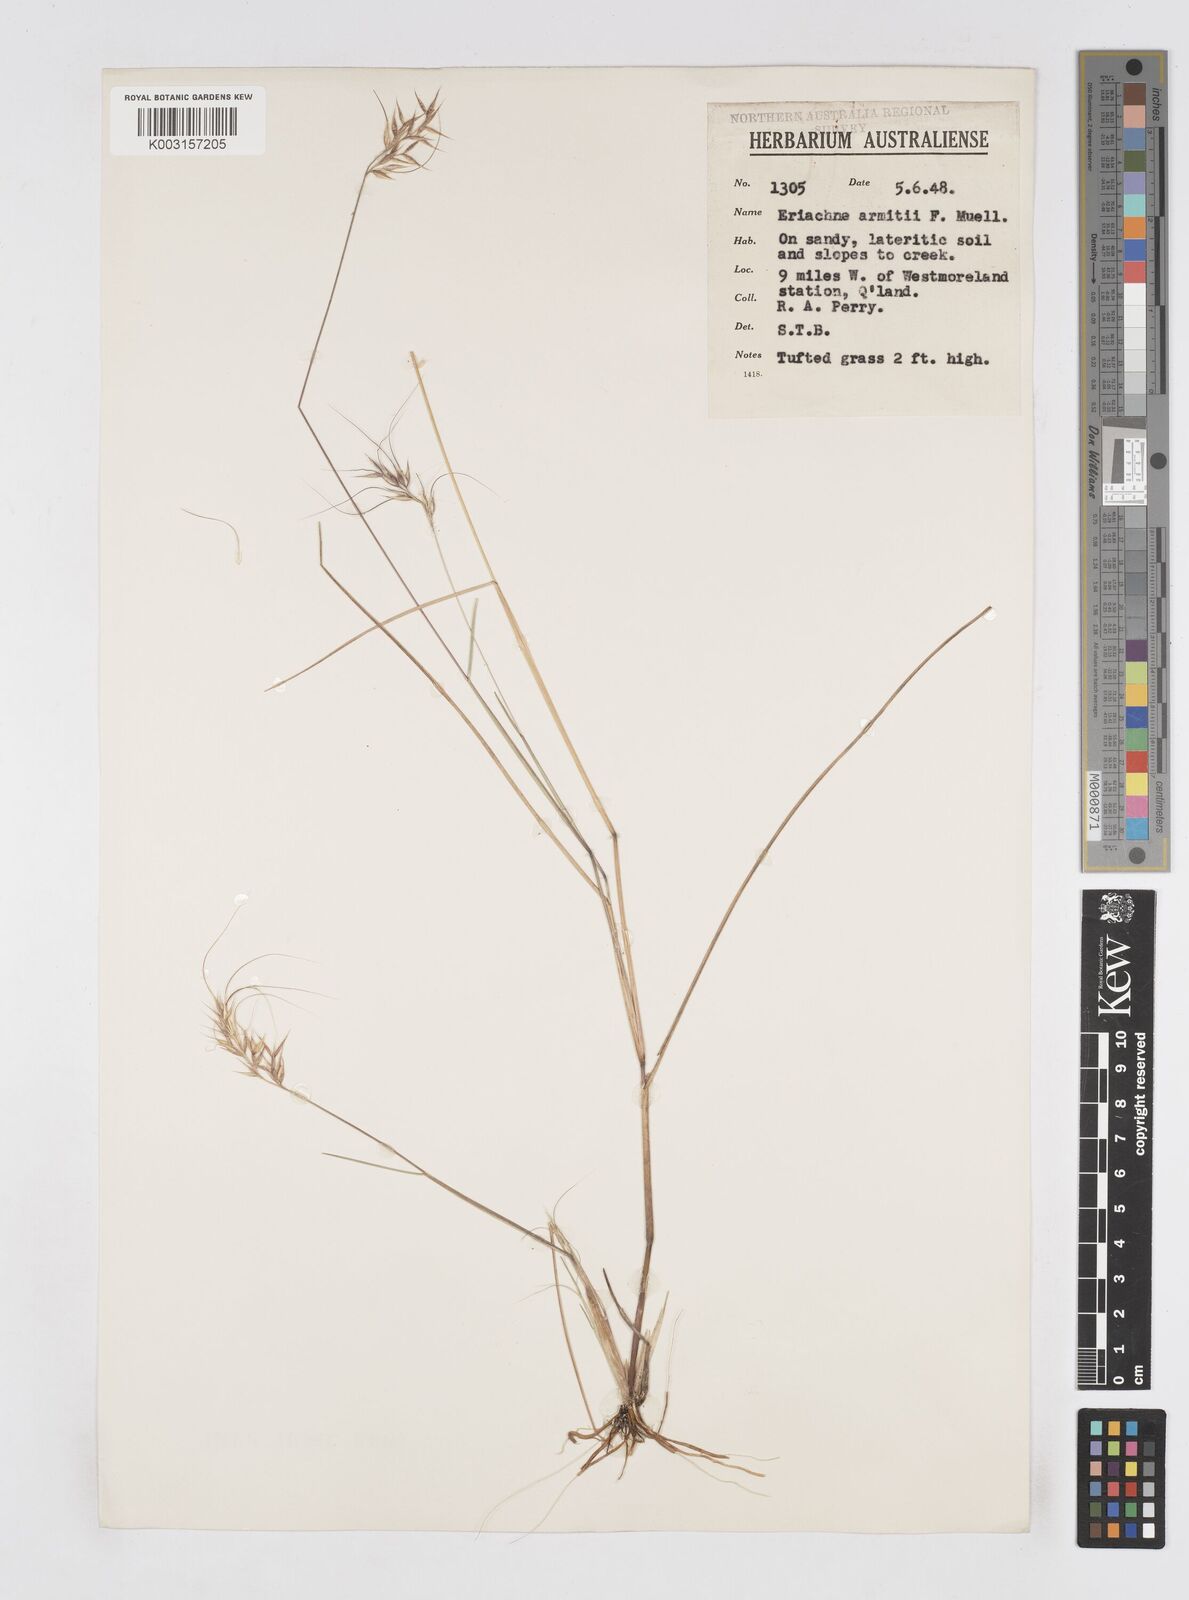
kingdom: Plantae
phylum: Tracheophyta
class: Liliopsida
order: Poales
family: Poaceae
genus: Eriachne
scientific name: Eriachne armitii
